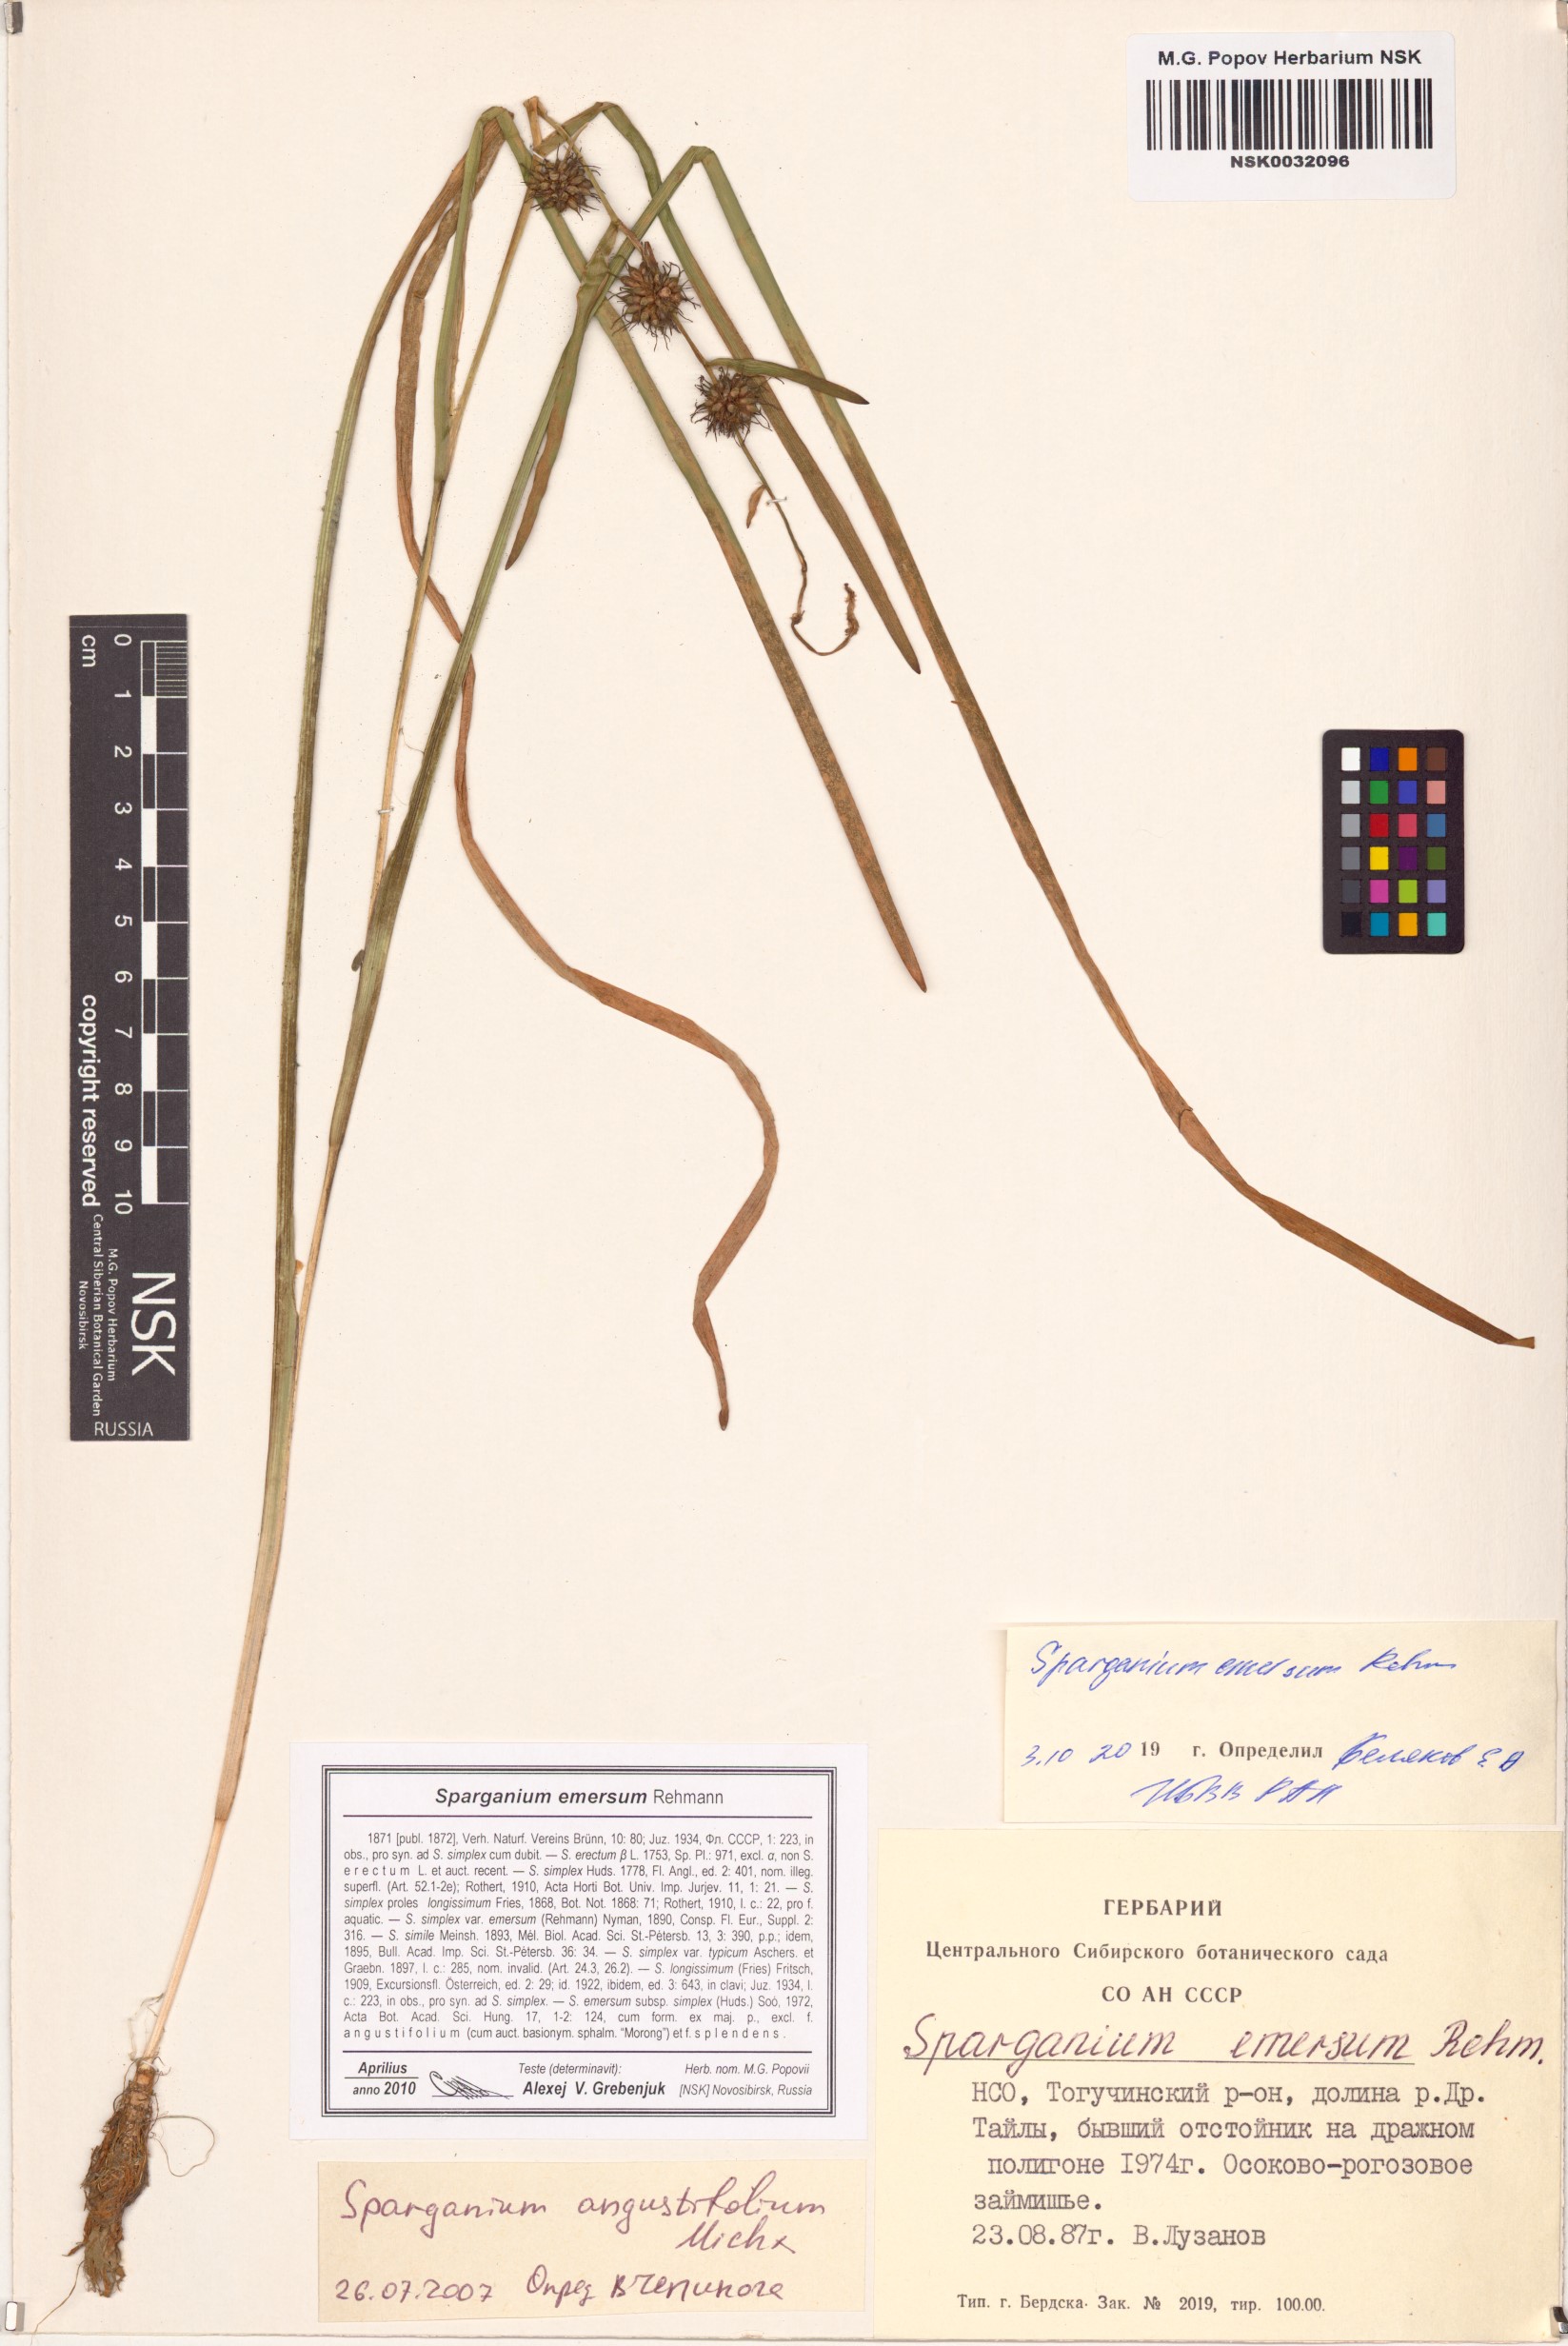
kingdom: Plantae
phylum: Tracheophyta
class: Liliopsida
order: Poales
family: Typhaceae
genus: Sparganium
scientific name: Sparganium emersum
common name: Unbranched bur-reed
